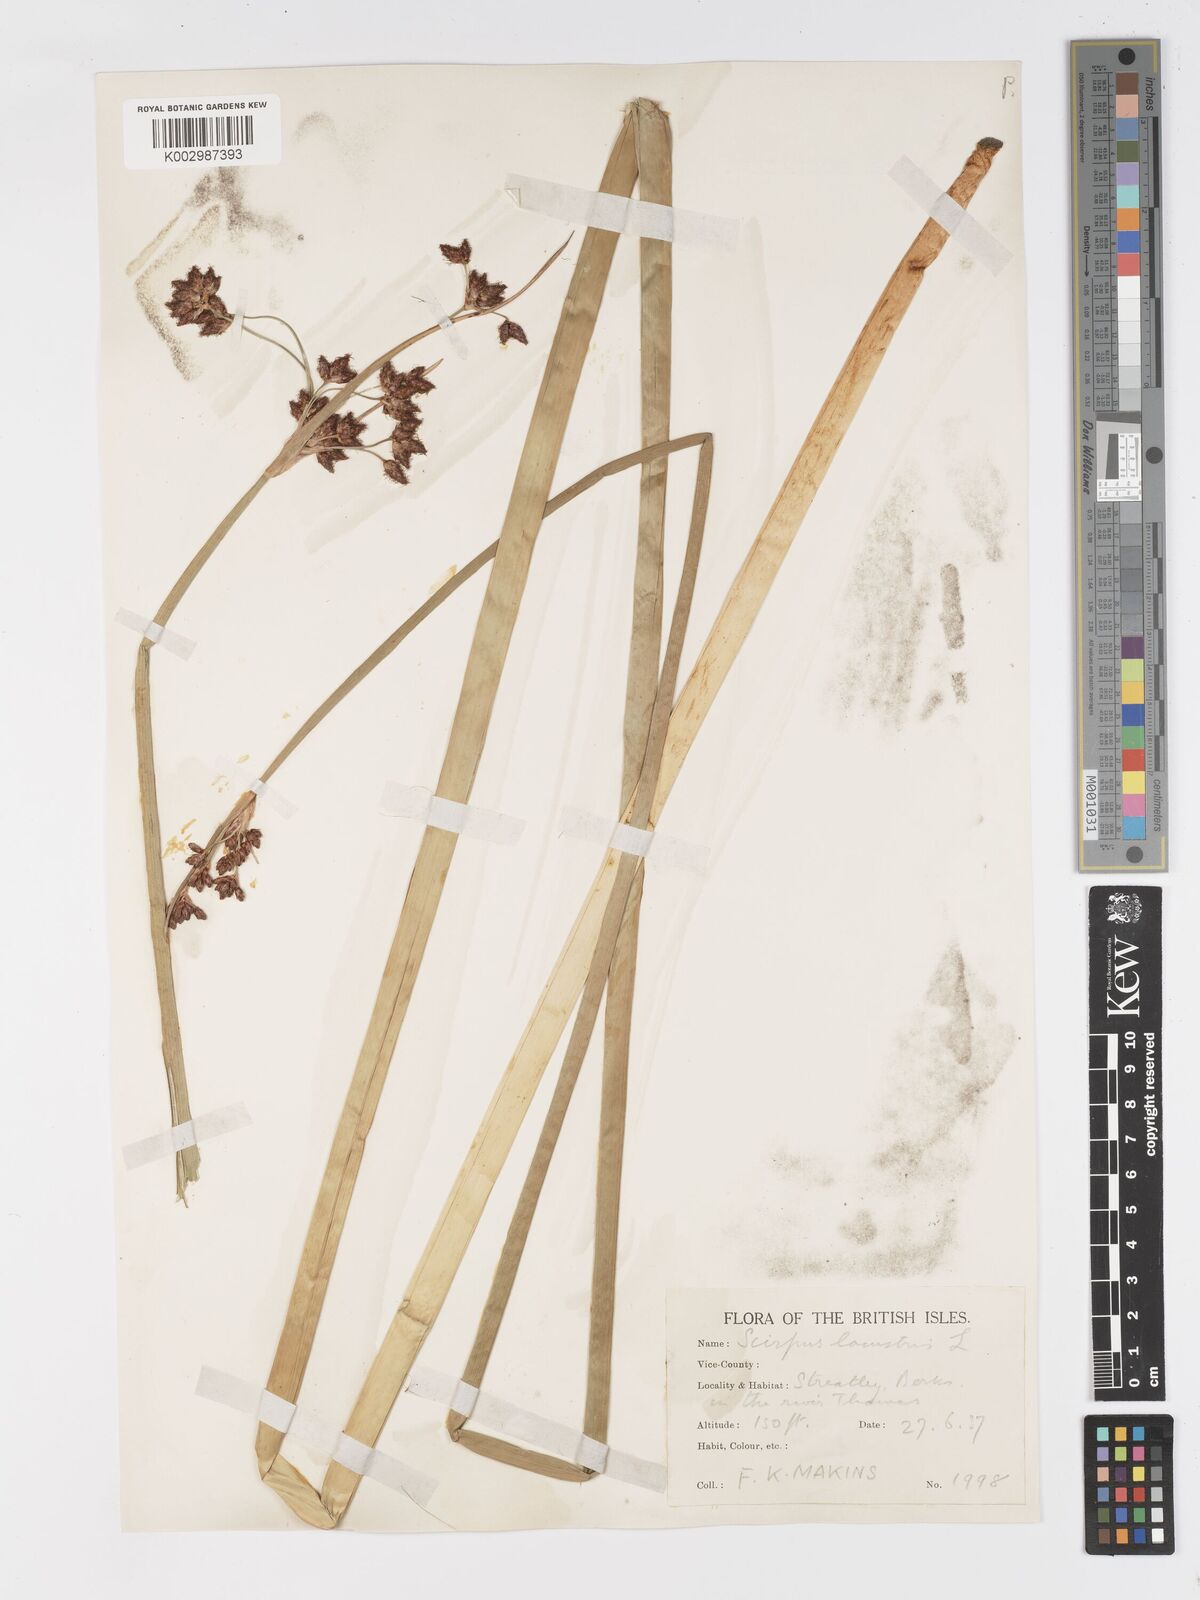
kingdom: Plantae
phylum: Tracheophyta
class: Liliopsida
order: Poales
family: Cyperaceae
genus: Schoenoplectus
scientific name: Schoenoplectus lacustris
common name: Common club-rush
